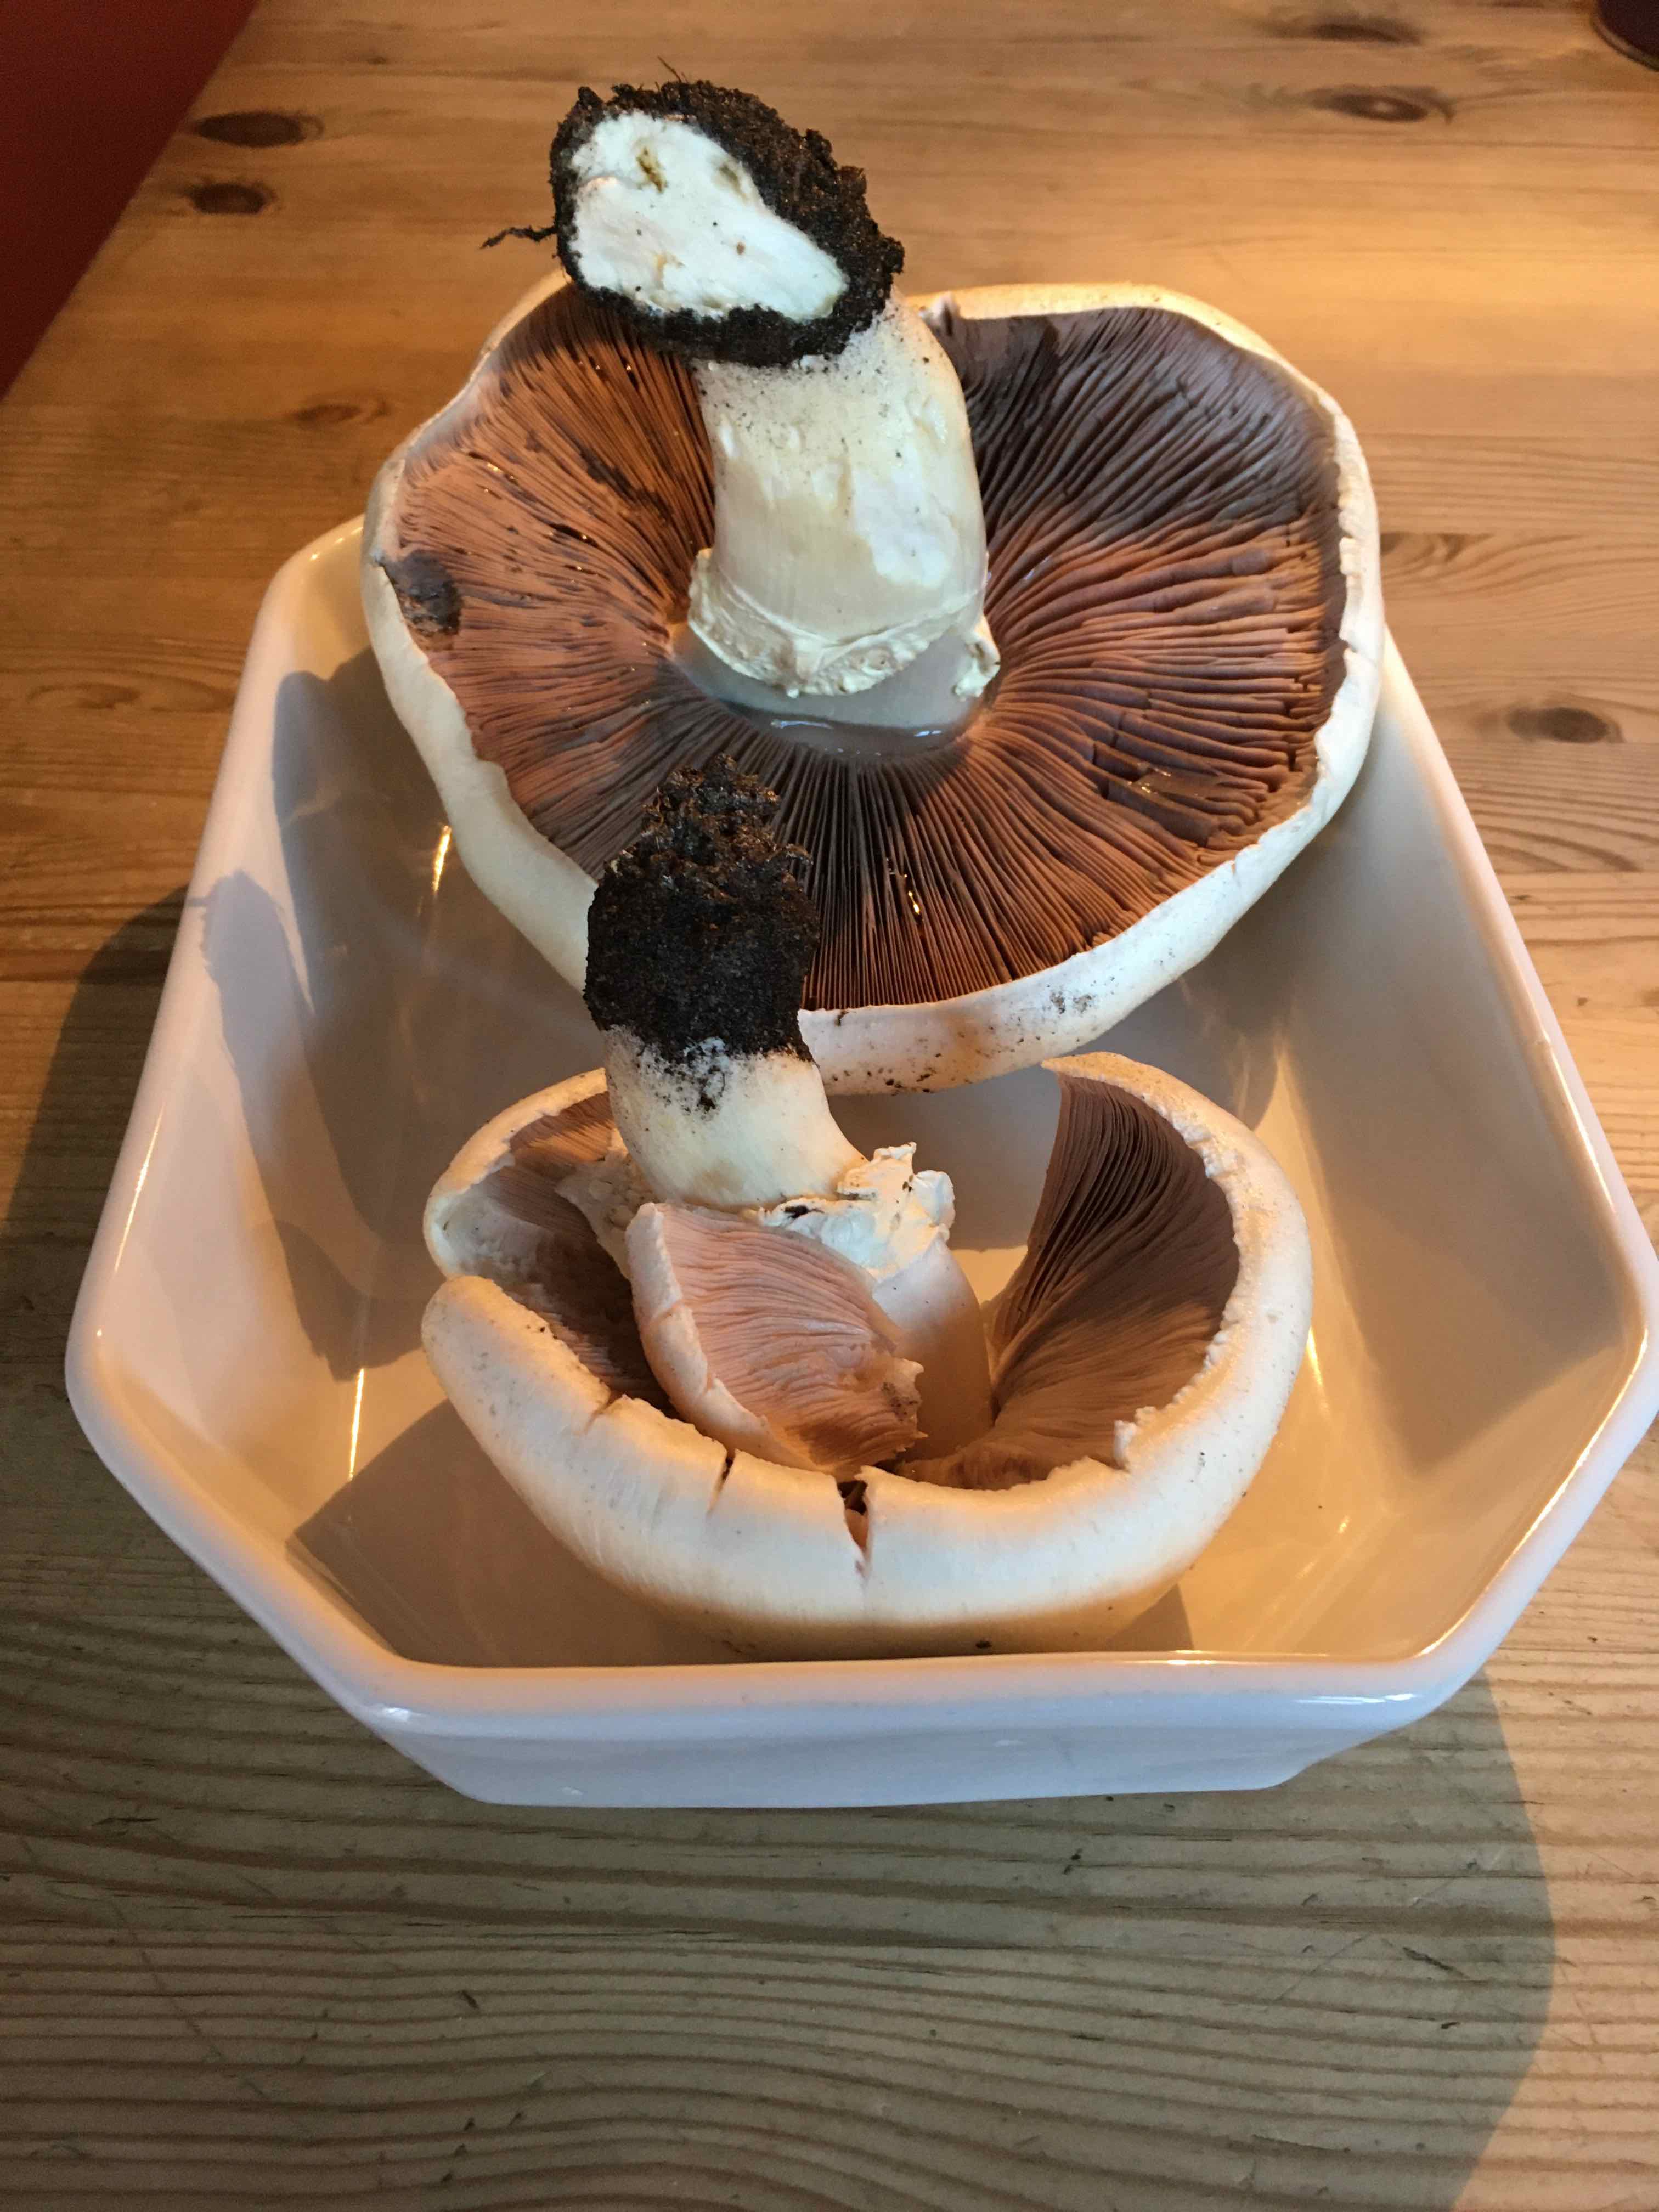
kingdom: Fungi
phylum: Basidiomycota
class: Agaricomycetes
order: Agaricales
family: Agaricaceae
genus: Agaricus
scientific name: Agaricus
